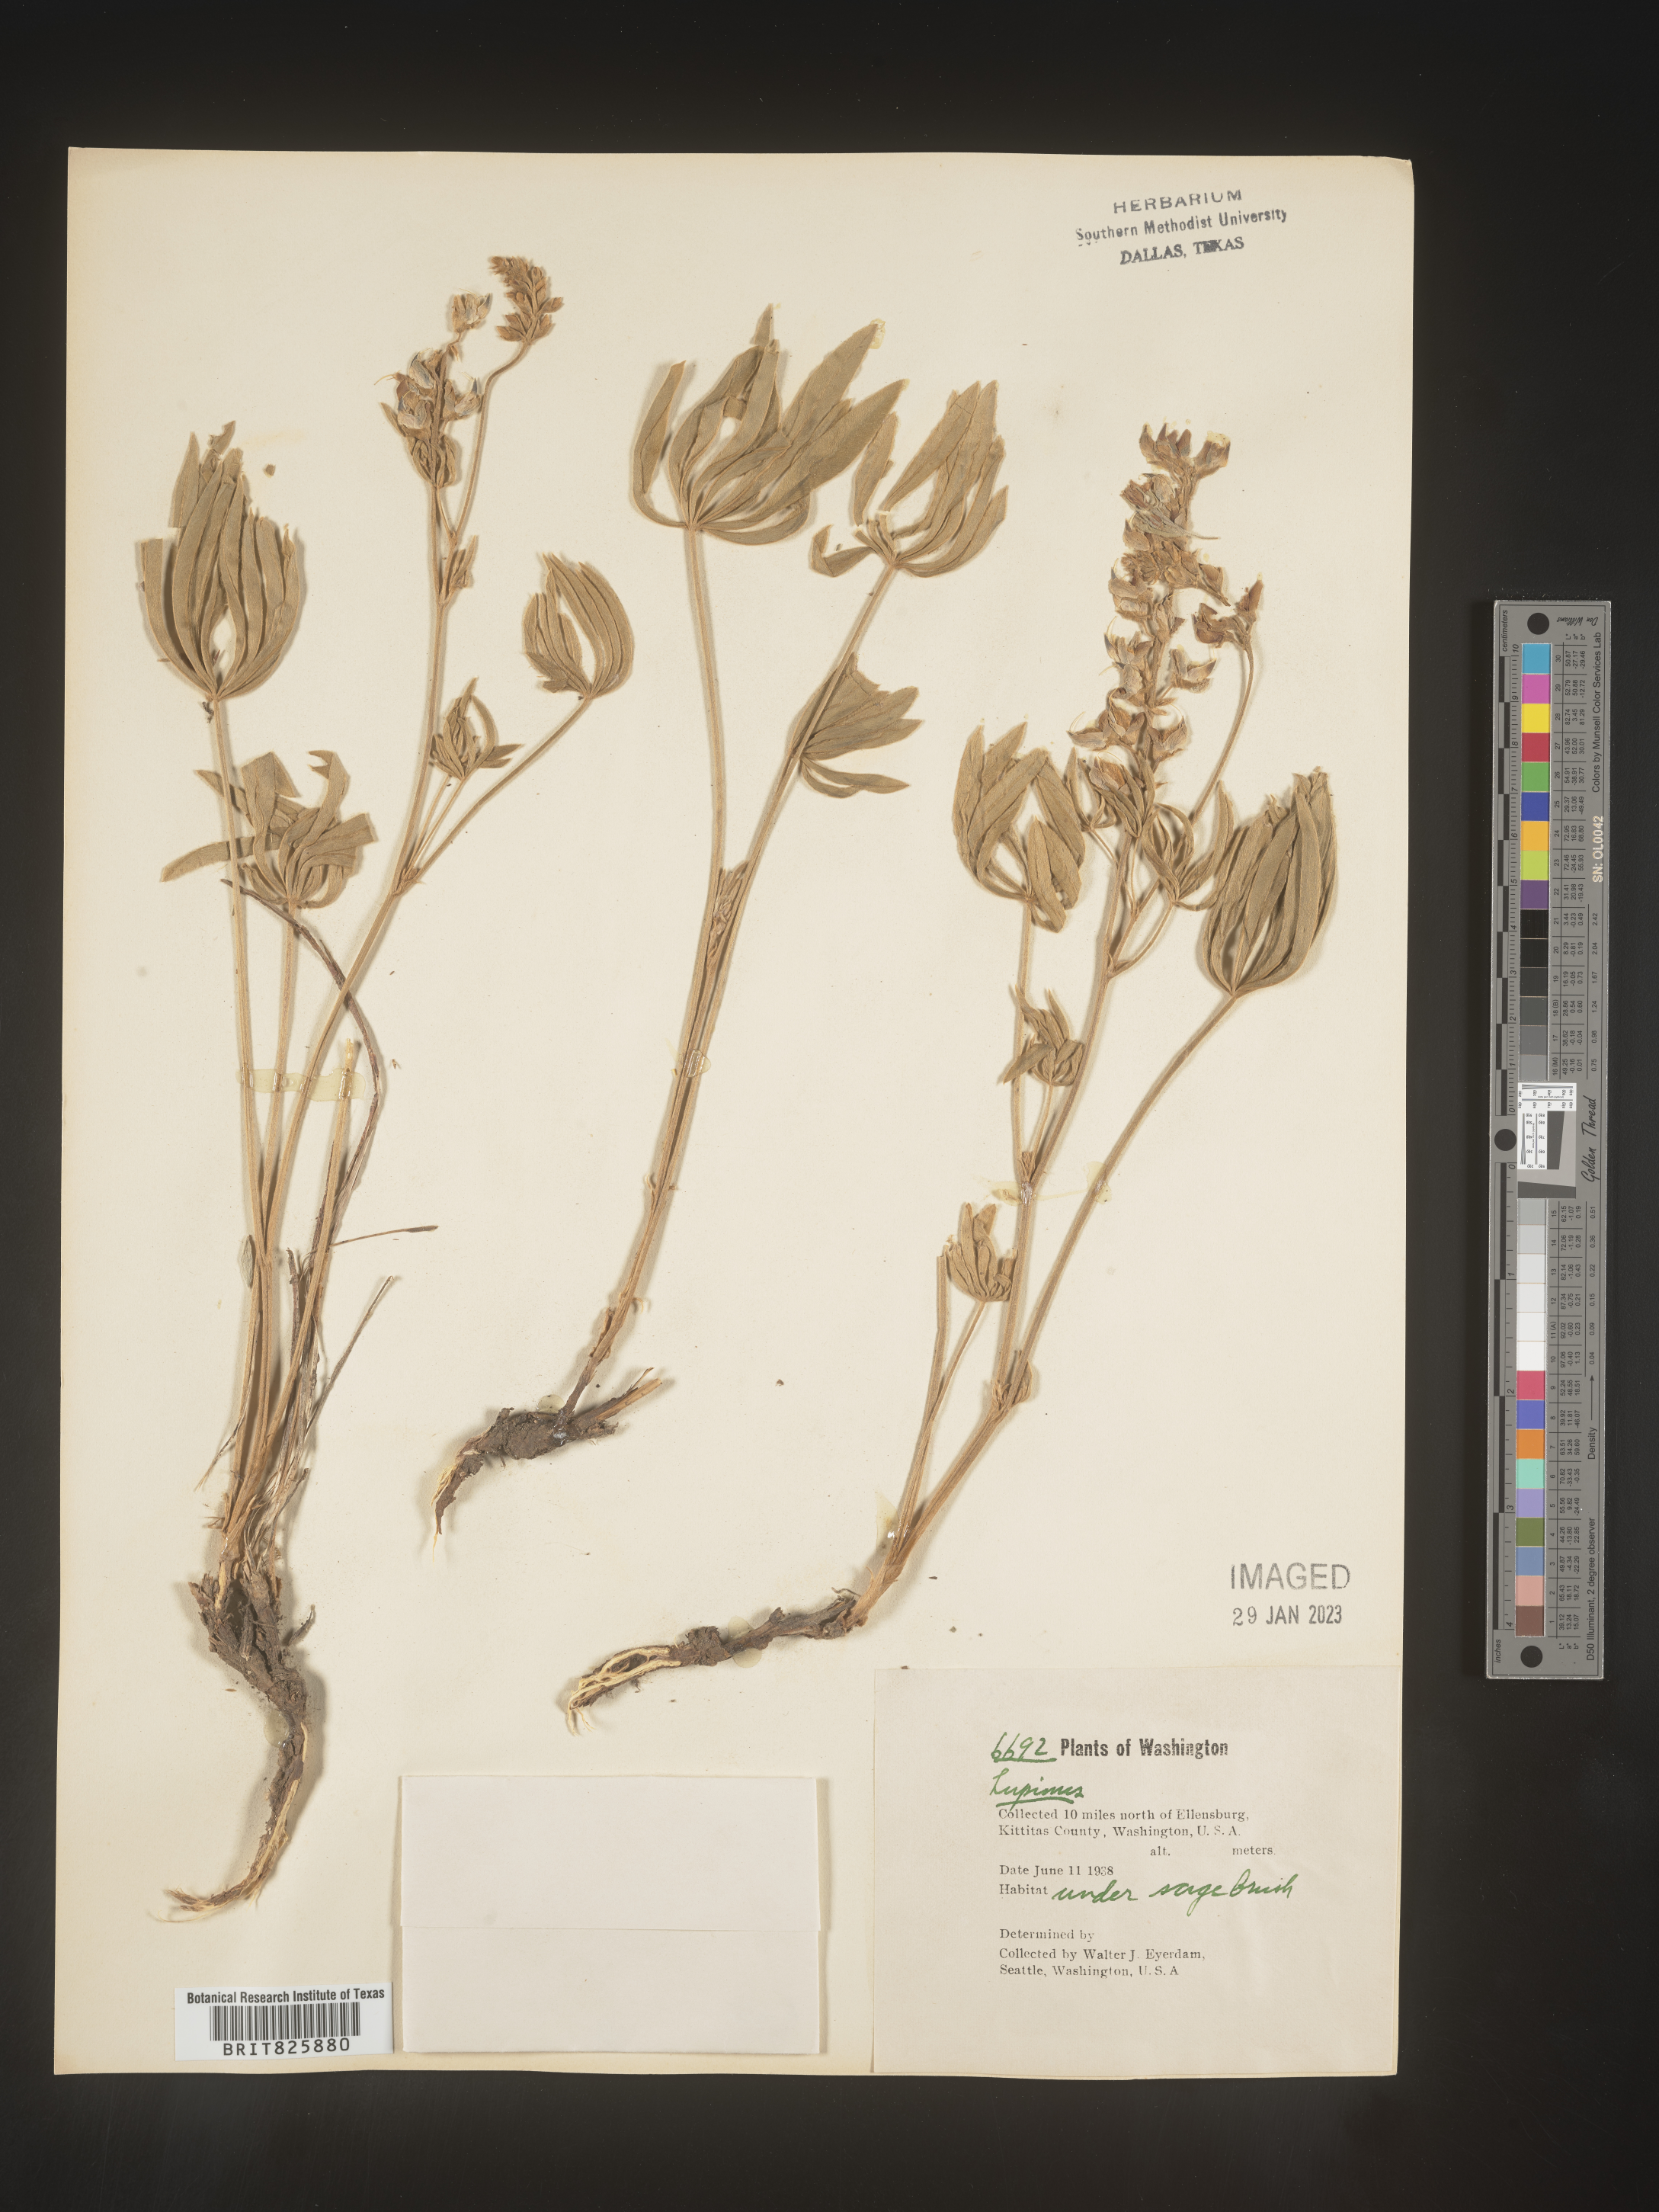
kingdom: Plantae
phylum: Tracheophyta
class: Magnoliopsida
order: Fabales
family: Fabaceae
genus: Lupinus
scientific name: Lupinus
